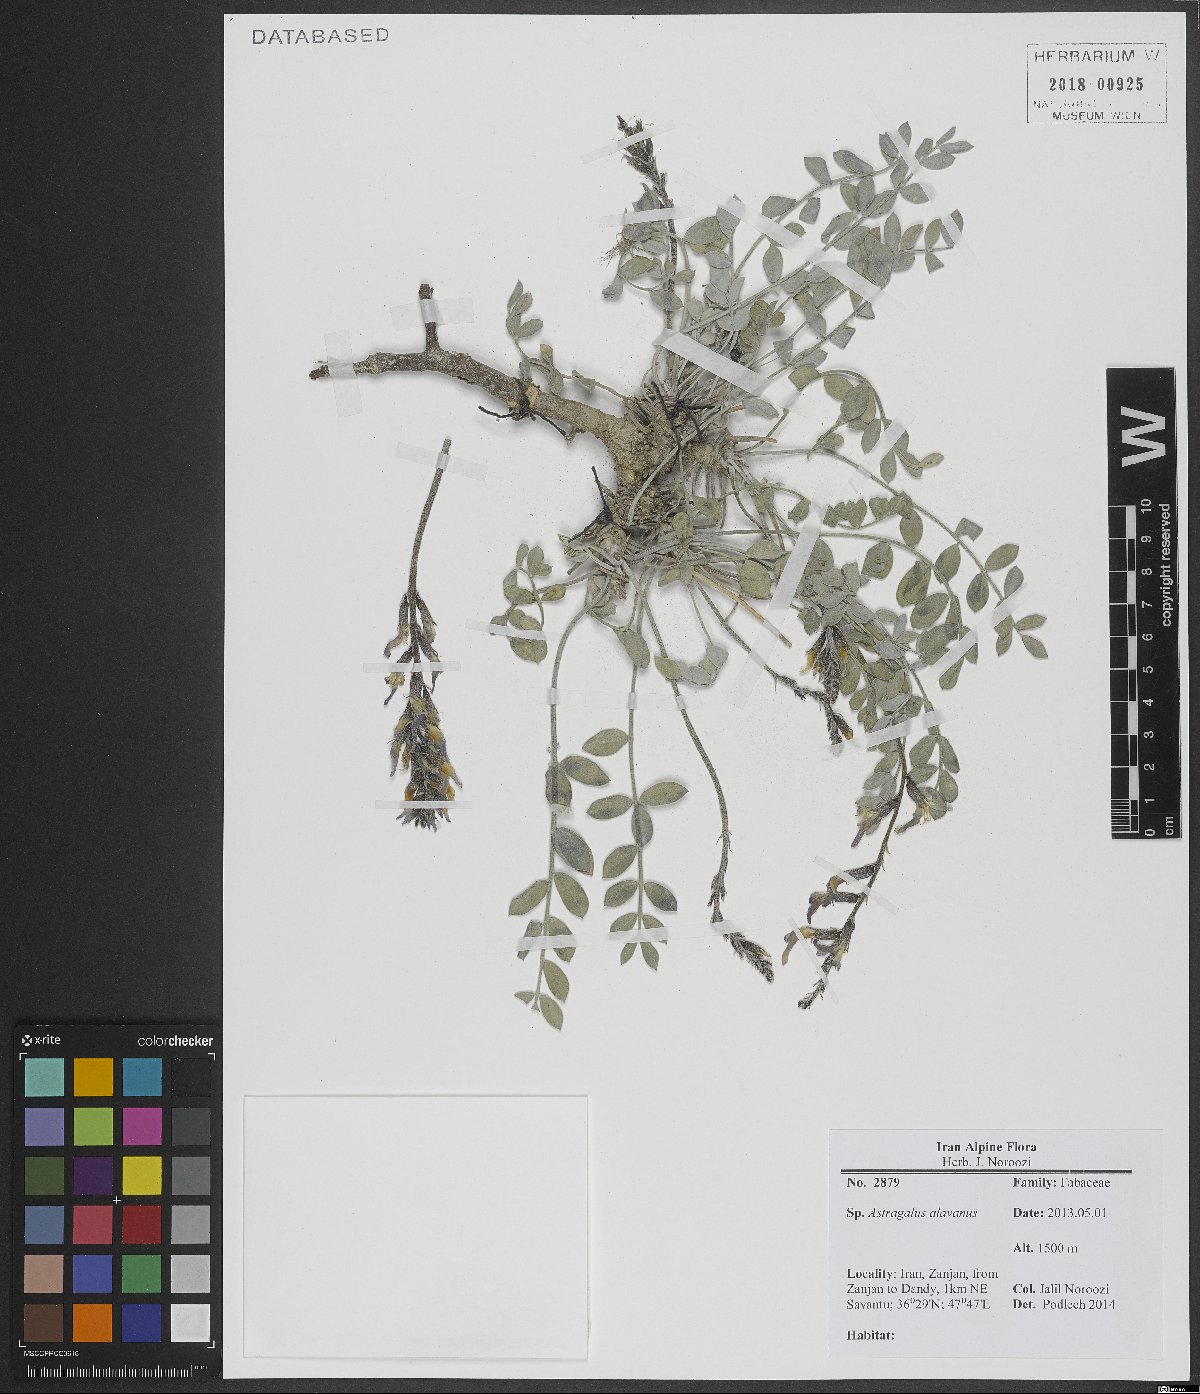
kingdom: Plantae
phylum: Tracheophyta
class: Magnoliopsida
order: Fabales
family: Fabaceae
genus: Astragalus
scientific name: Astragalus alavaanus
